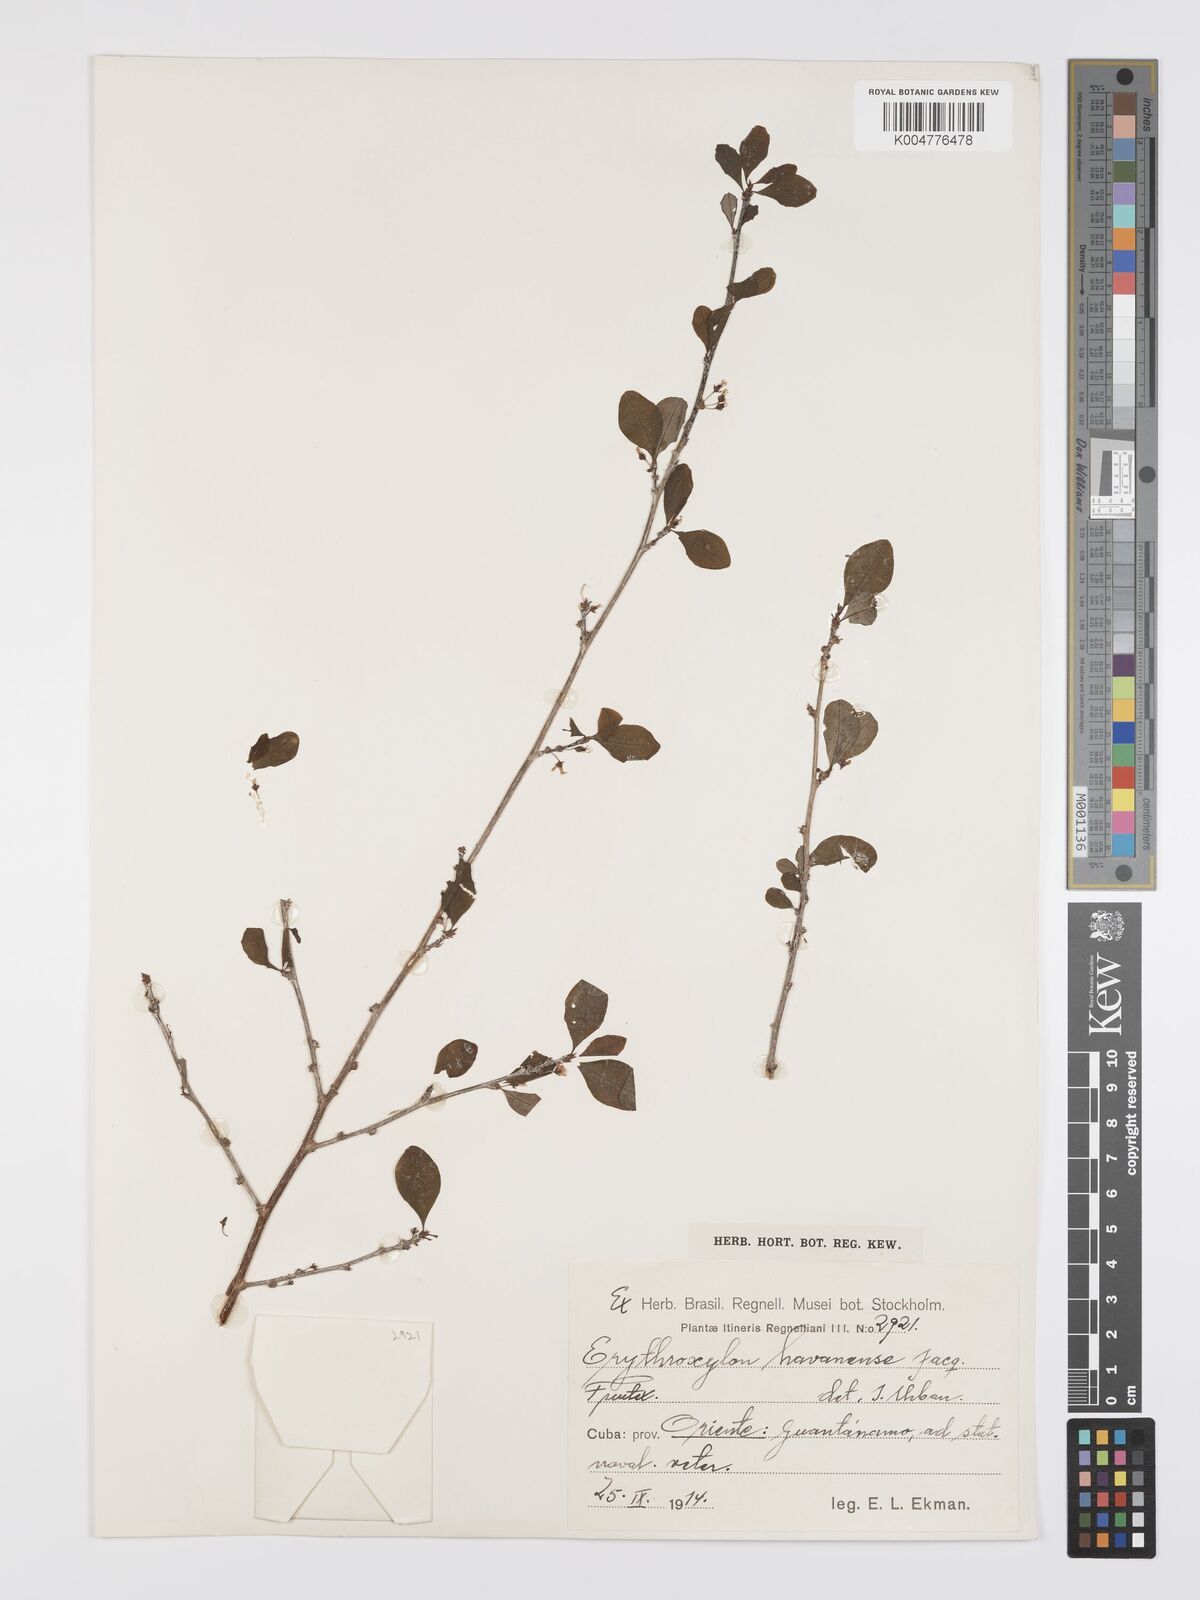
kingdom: Plantae
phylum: Tracheophyta
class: Magnoliopsida
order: Malpighiales
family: Erythroxylaceae
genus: Erythroxylum
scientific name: Erythroxylum
